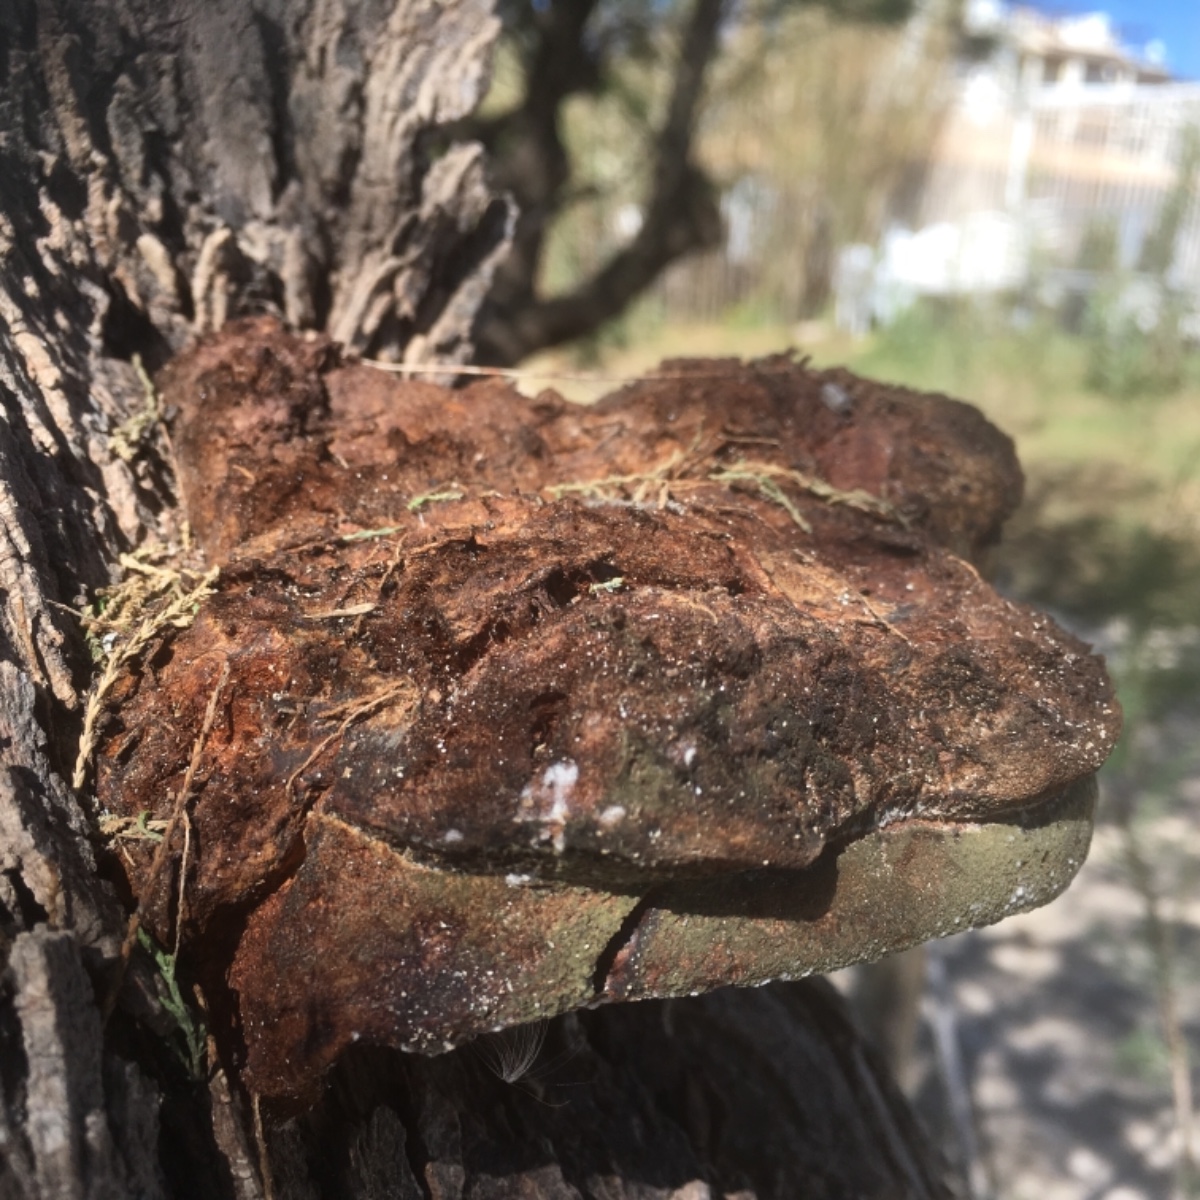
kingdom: Fungi
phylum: Basidiomycota
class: Agaricomycetes
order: Hymenochaetales
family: Hymenochaetaceae
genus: Inocutis
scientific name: Inocutis tamaricis
